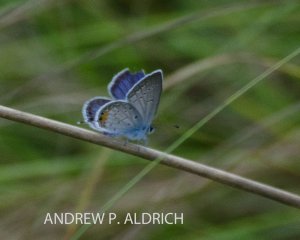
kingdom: Animalia
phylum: Arthropoda
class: Insecta
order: Lepidoptera
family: Lycaenidae
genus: Elkalyce
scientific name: Elkalyce comyntas
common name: Eastern Tailed-Blue
